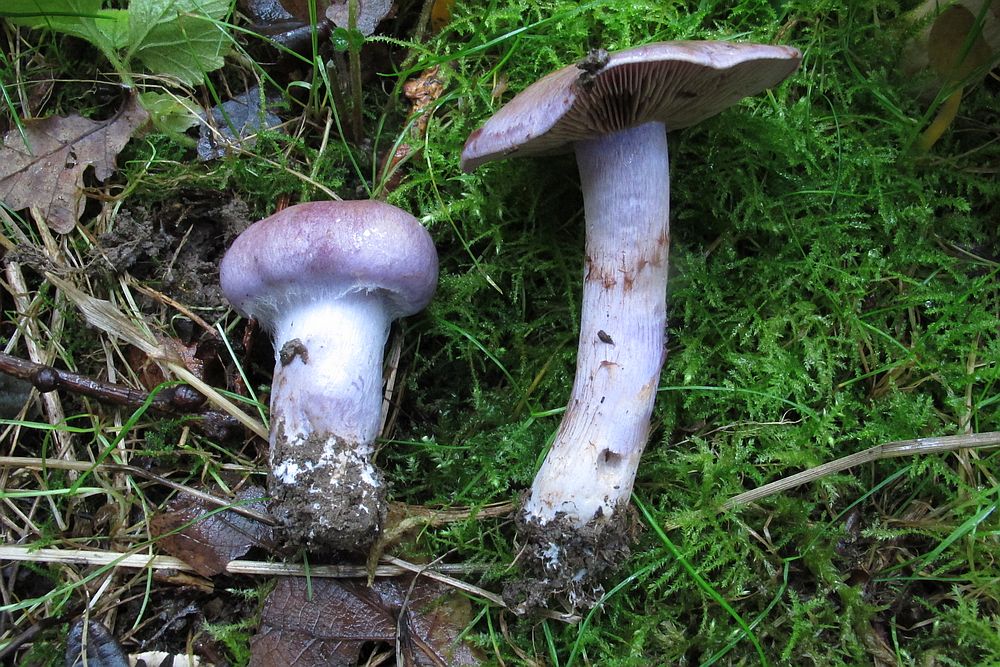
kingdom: Fungi
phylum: Basidiomycota
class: Agaricomycetes
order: Agaricales
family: Cortinariaceae
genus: Phlegmacium
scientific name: Phlegmacium pseudodaulnoyae
